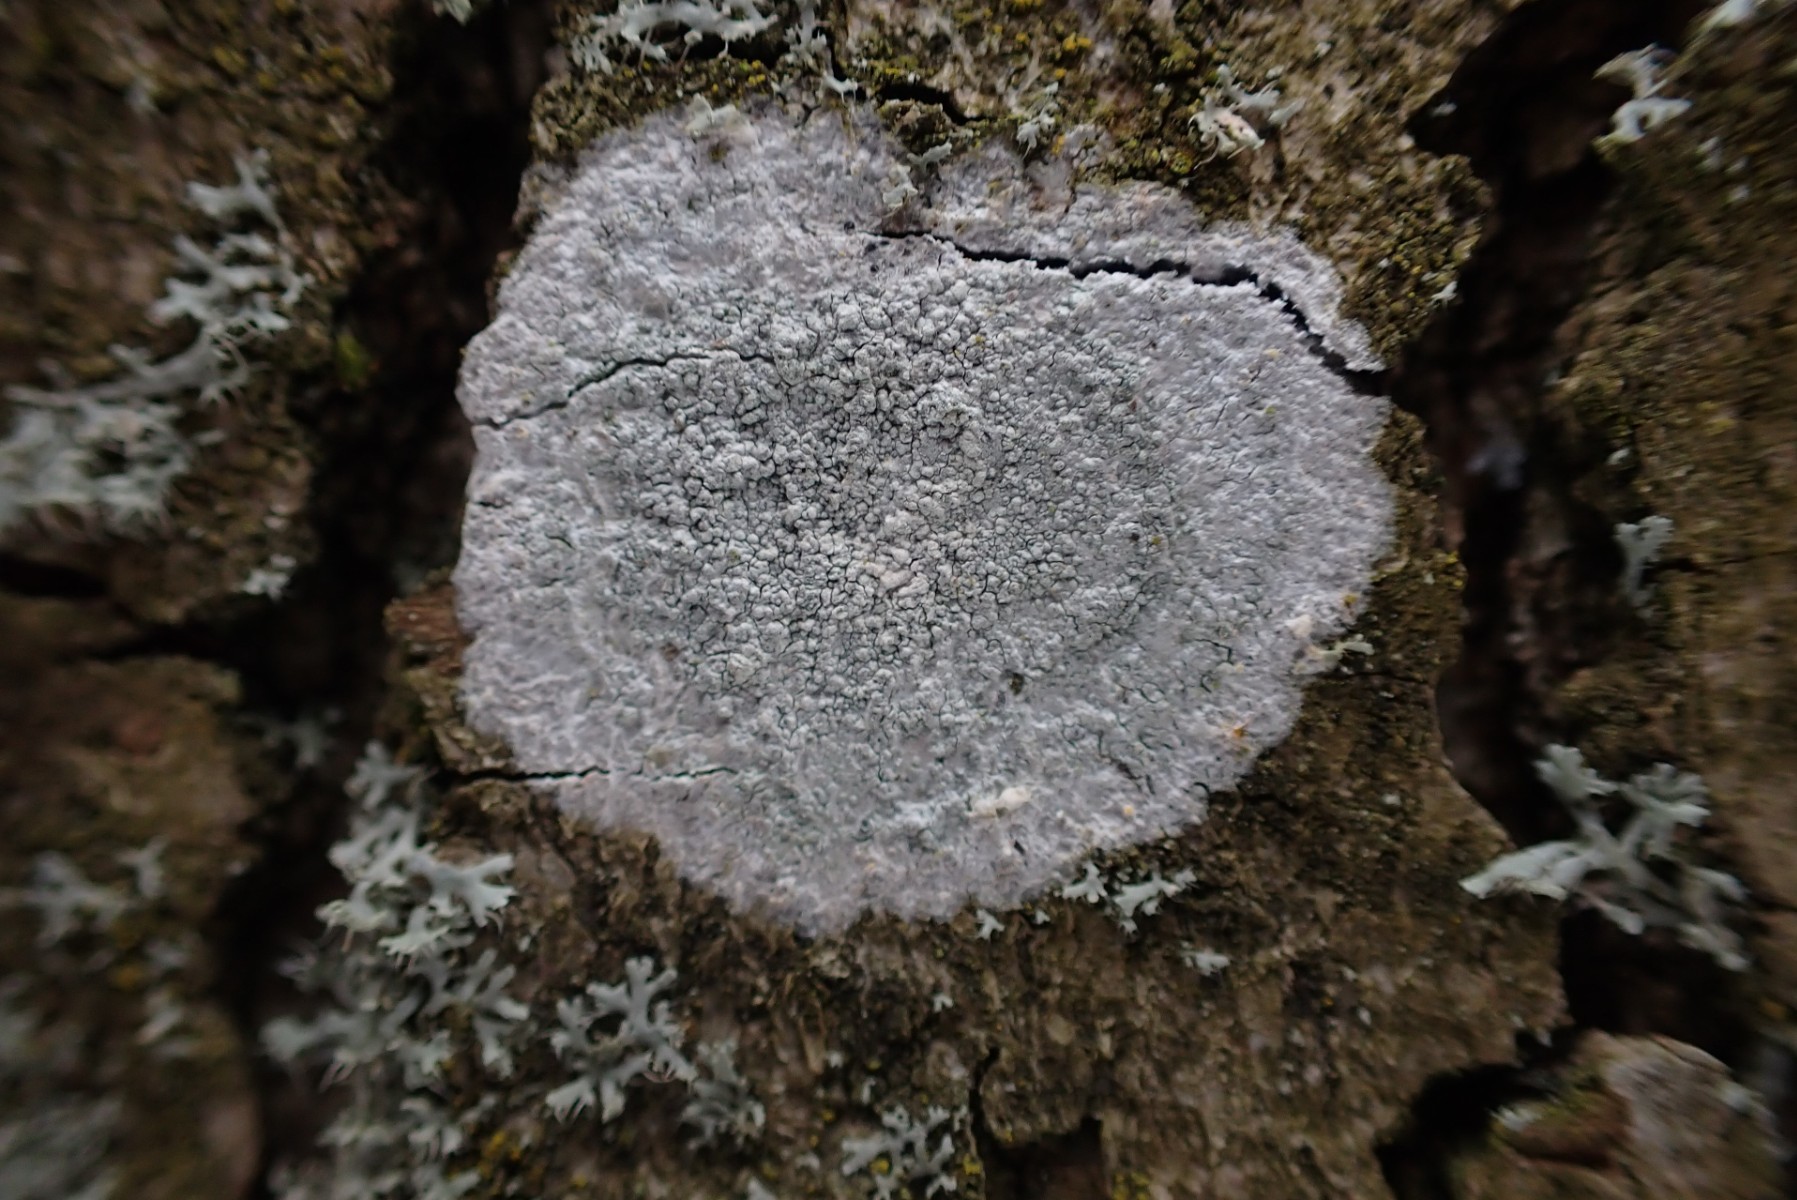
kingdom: Fungi
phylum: Ascomycota
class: Lecanoromycetes
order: Ostropales
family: Phlyctidaceae
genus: Phlyctis
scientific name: Phlyctis argena
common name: almindelig sølvlav
